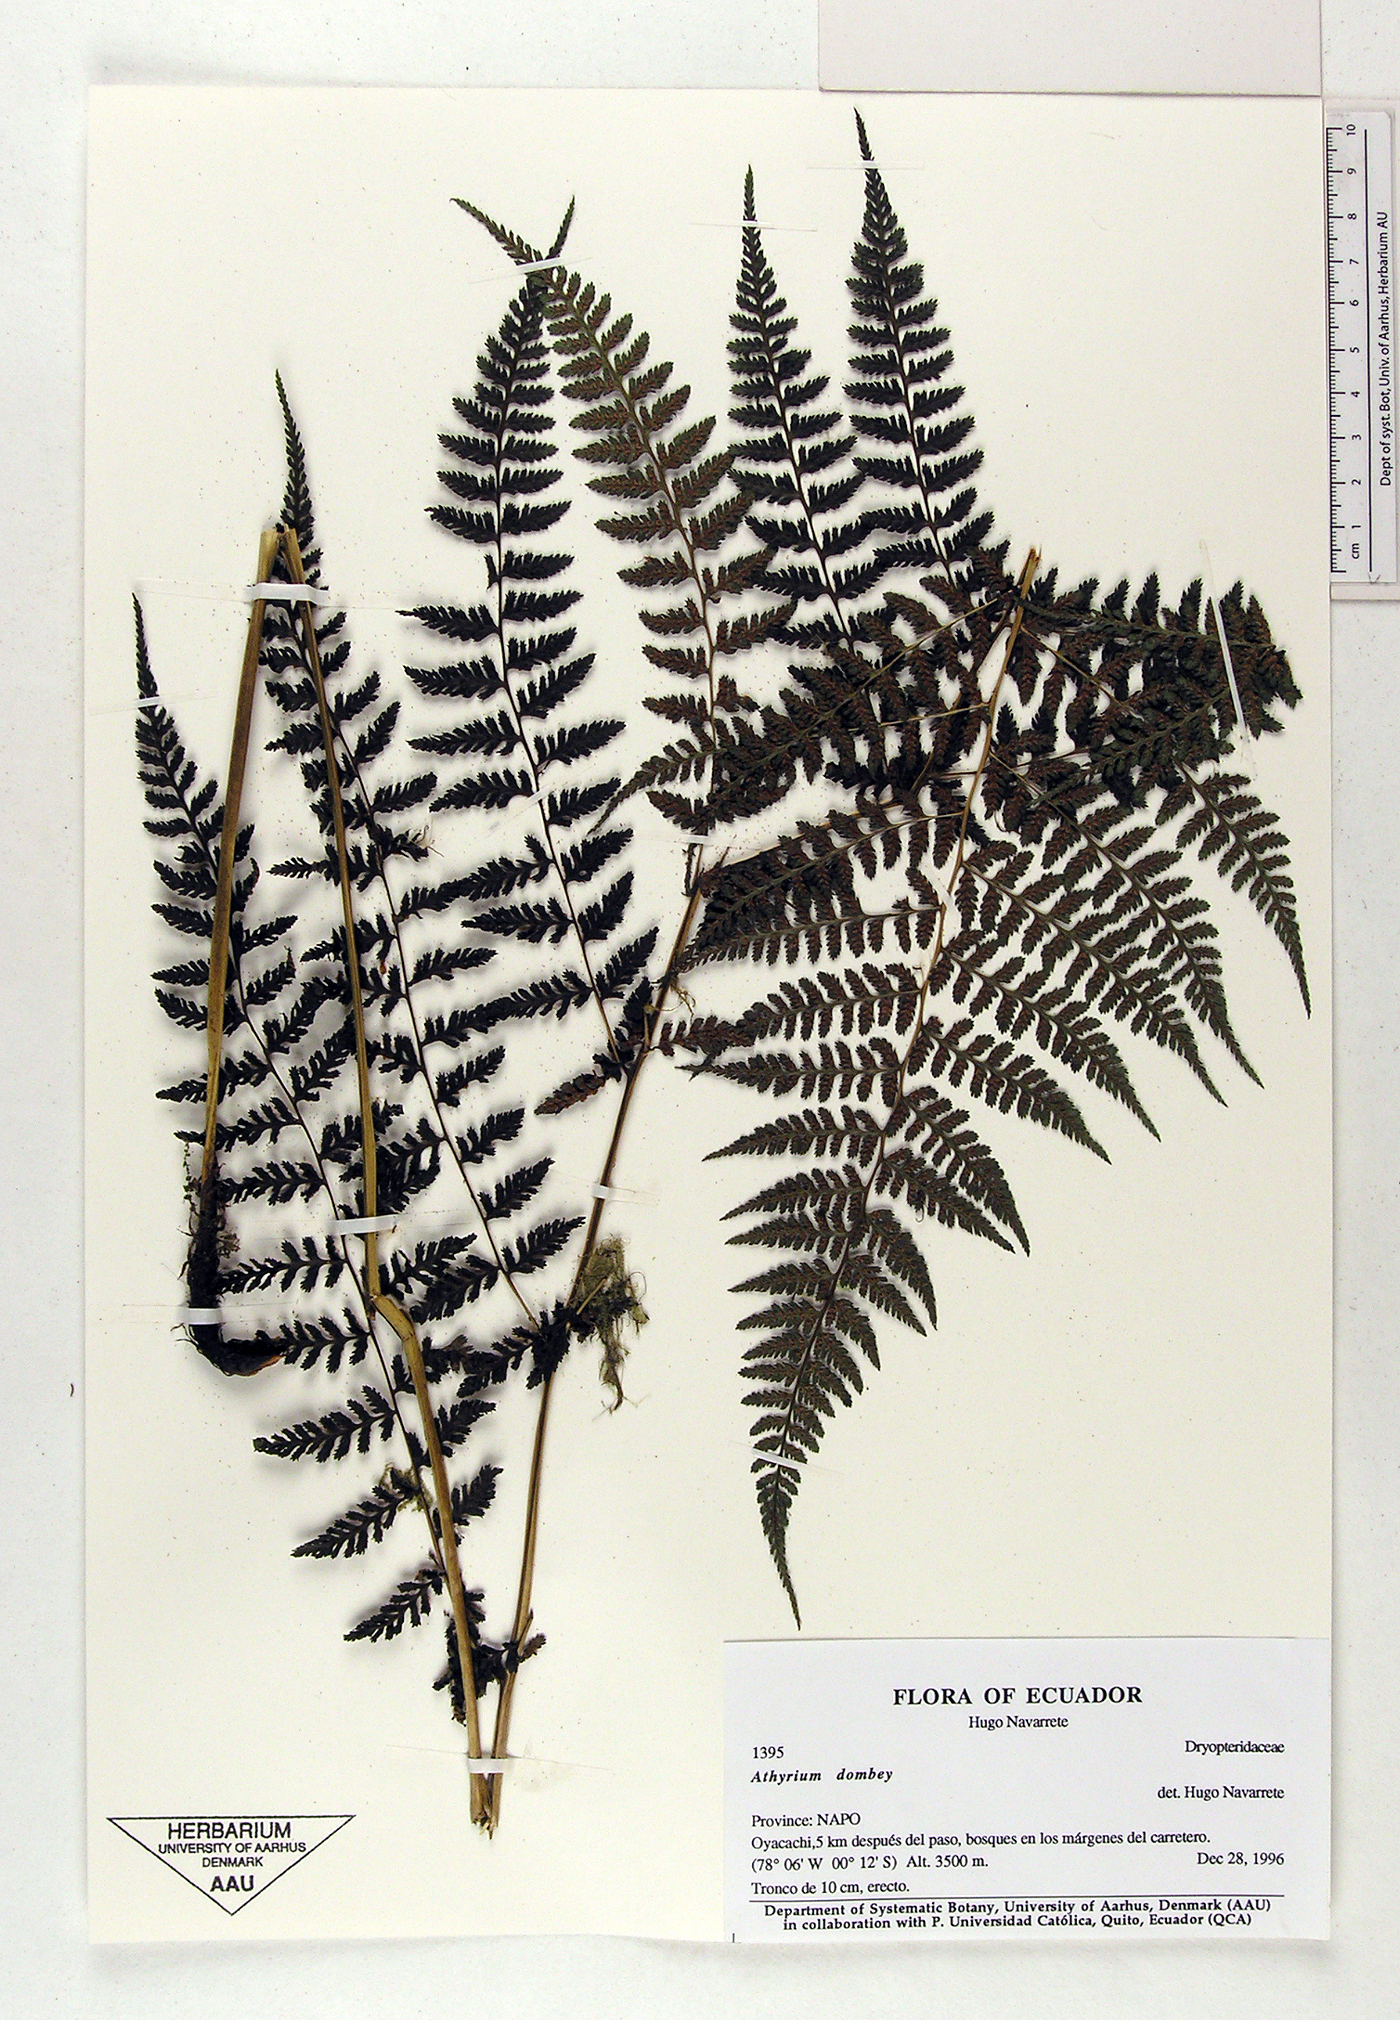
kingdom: Plantae
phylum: Tracheophyta
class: Polypodiopsida
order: Polypodiales
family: Athyriaceae
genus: Athyrium
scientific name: Athyrium dombeyi
